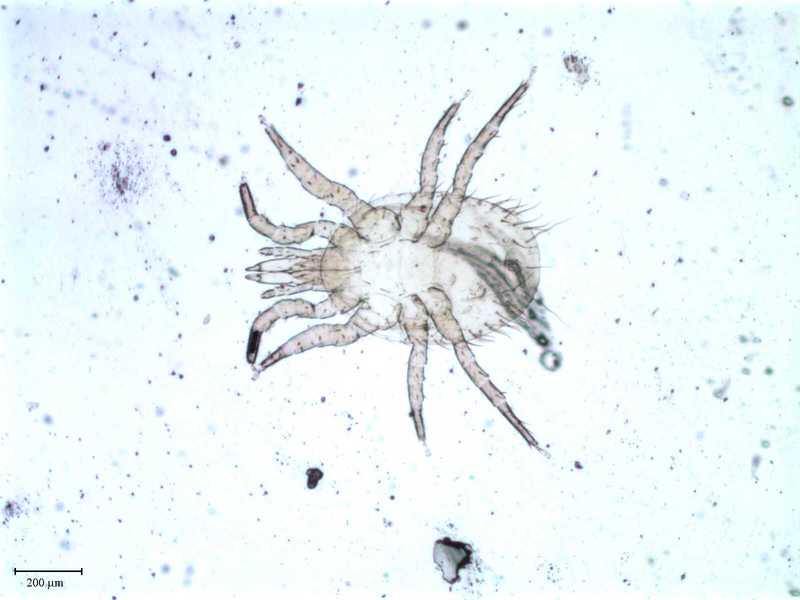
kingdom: Animalia
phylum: Arthropoda
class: Arachnida
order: Mesostigmata
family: Laelapidae
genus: Haemolaelaps
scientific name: Haemolaelaps
